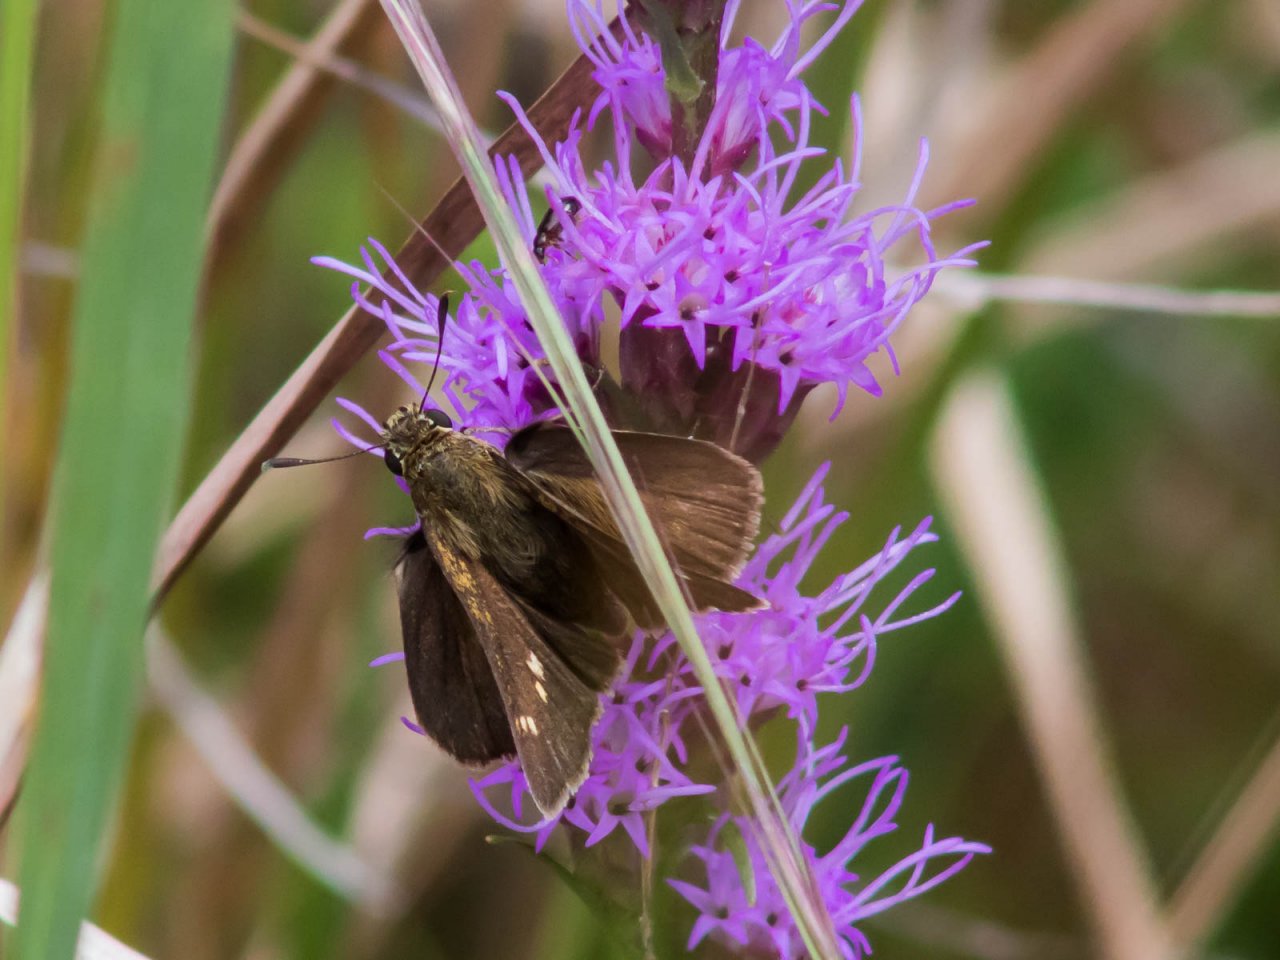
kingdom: Animalia
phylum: Arthropoda
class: Insecta
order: Lepidoptera
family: Hesperiidae
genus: Euphyes
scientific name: Euphyes vestris
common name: Dun Skipper
